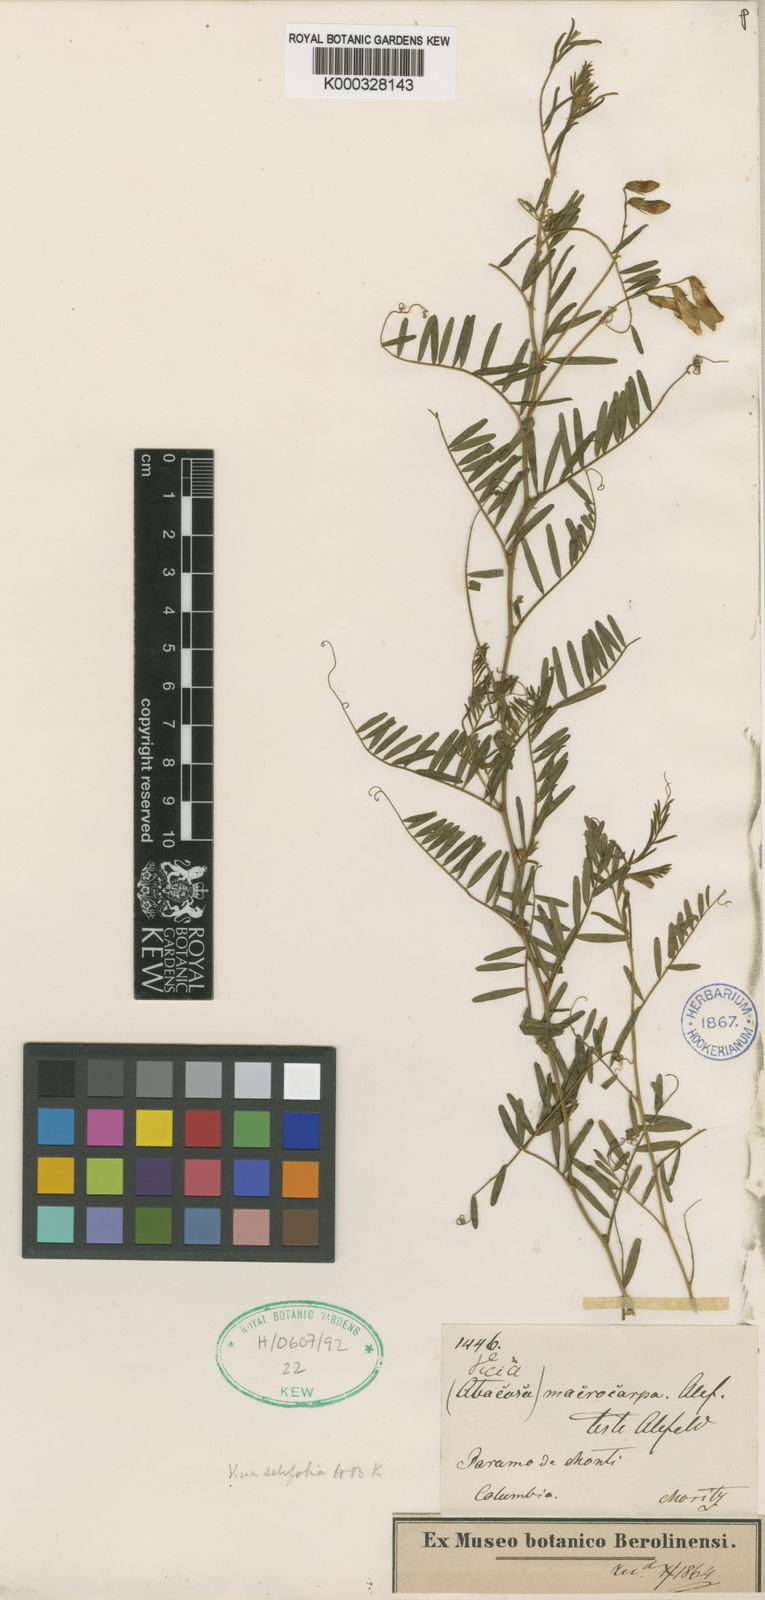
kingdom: Plantae
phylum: Tracheophyta
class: Magnoliopsida
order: Fabales
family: Fabaceae
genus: Vicia
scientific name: Vicia setifolia
